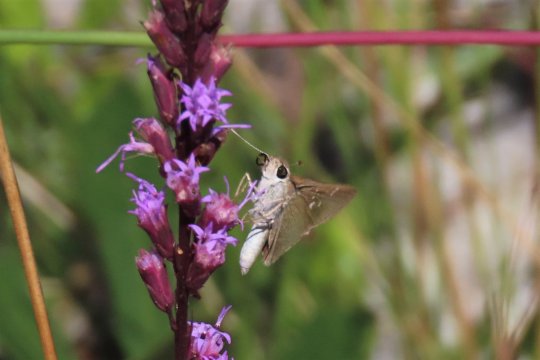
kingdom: Animalia
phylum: Arthropoda
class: Insecta
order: Lepidoptera
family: Hesperiidae
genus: Lerodea
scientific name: Lerodea eufala
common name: Eufala Skipper
